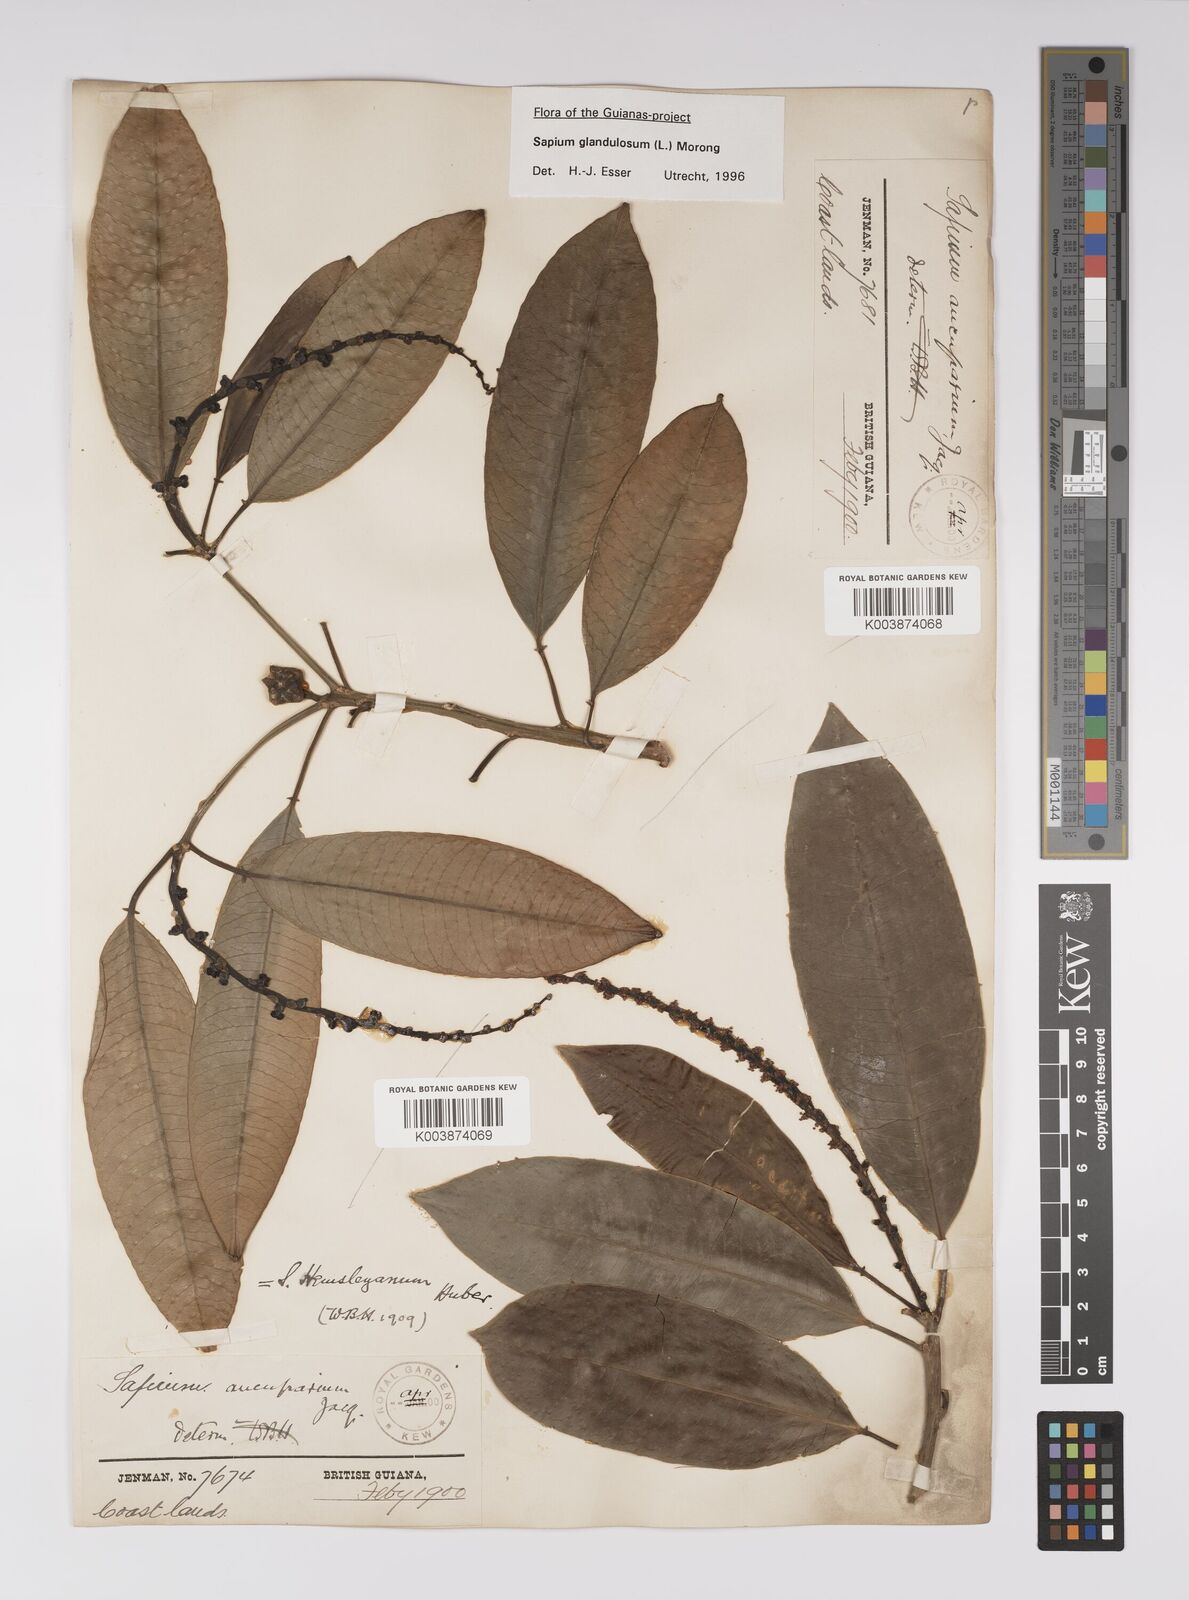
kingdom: Plantae
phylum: Tracheophyta
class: Magnoliopsida
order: Malpighiales
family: Euphorbiaceae
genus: Sapium
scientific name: Sapium glandulosum
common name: Milktree
